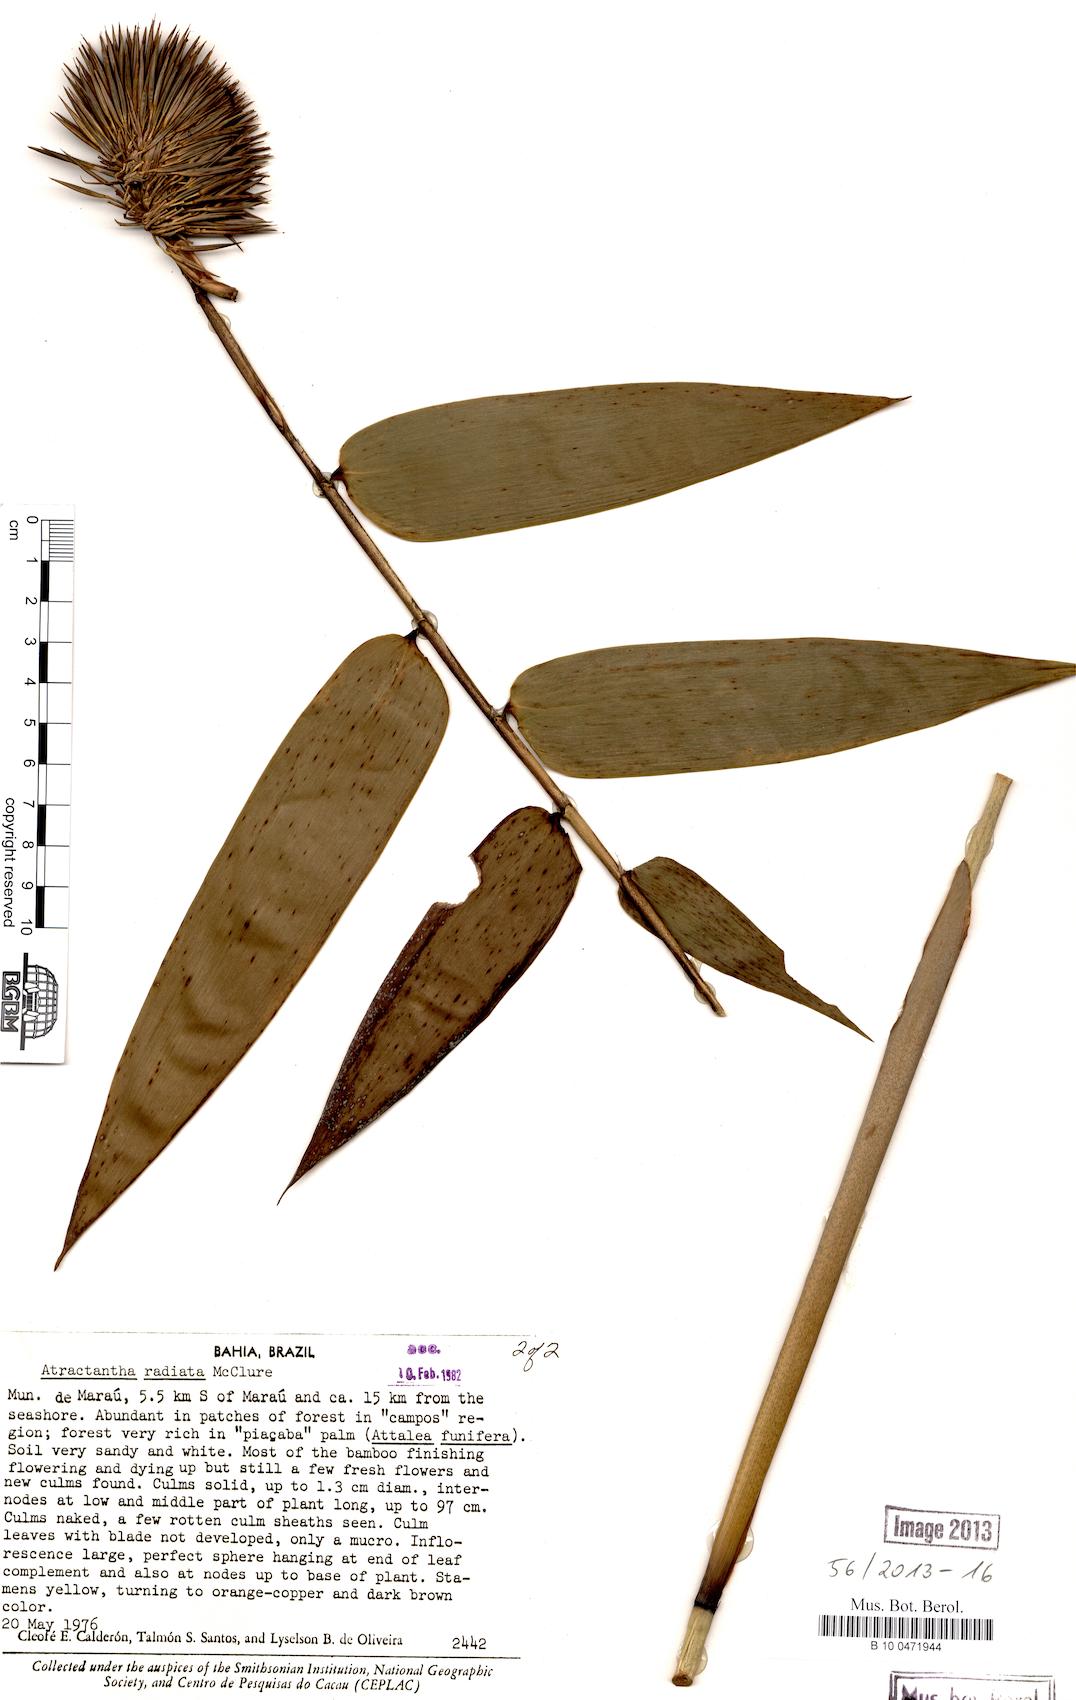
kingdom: Plantae
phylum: Tracheophyta
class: Liliopsida
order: Poales
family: Poaceae
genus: Atractantha
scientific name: Atractantha radiata
